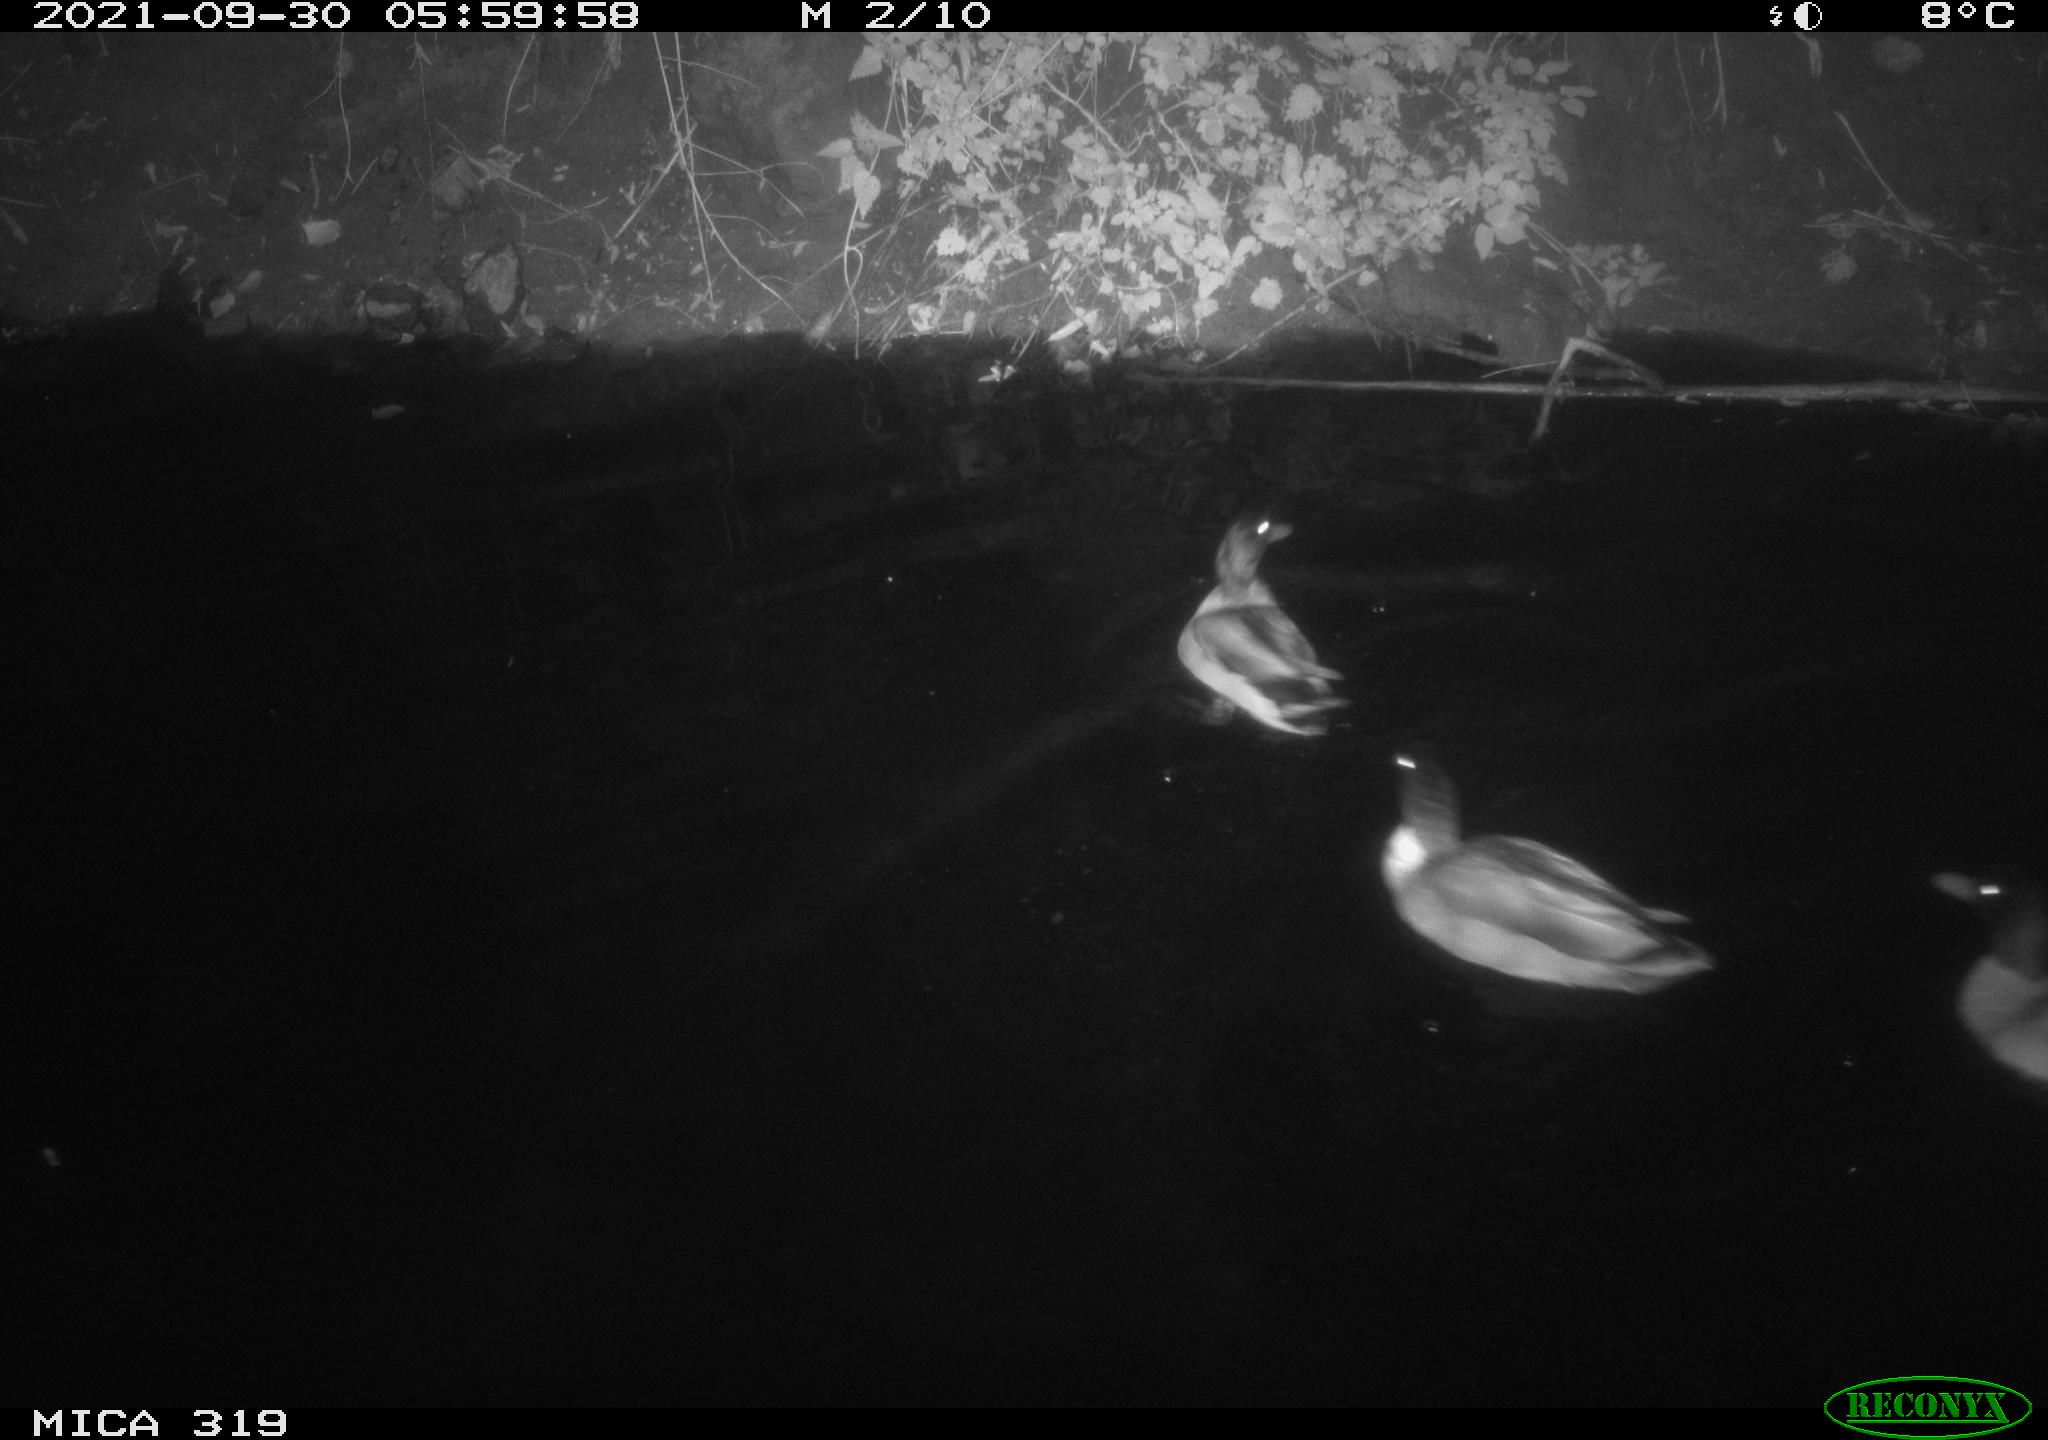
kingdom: Animalia
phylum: Chordata
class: Aves
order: Anseriformes
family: Anatidae
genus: Anas
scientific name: Anas platyrhynchos
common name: Mallard
